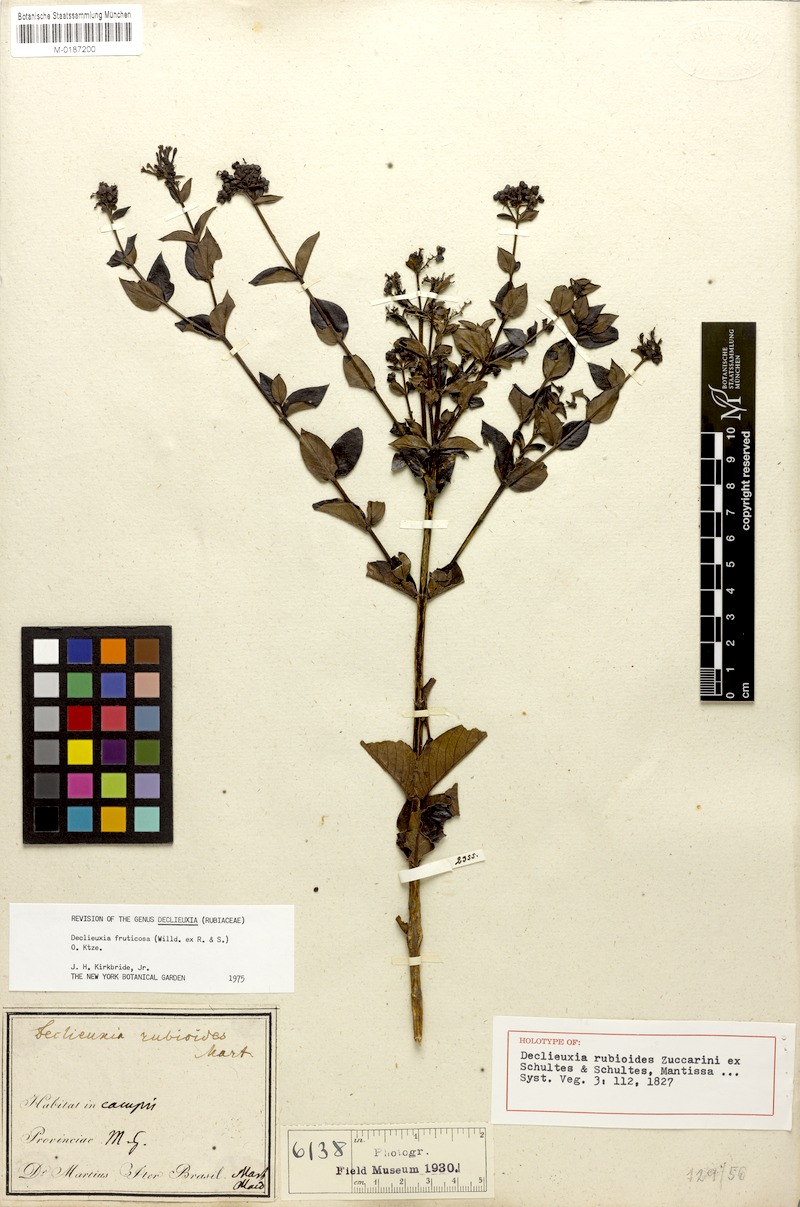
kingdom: Plantae
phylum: Tracheophyta
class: Magnoliopsida
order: Gentianales
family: Rubiaceae
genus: Declieuxia
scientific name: Declieuxia fruticosa
